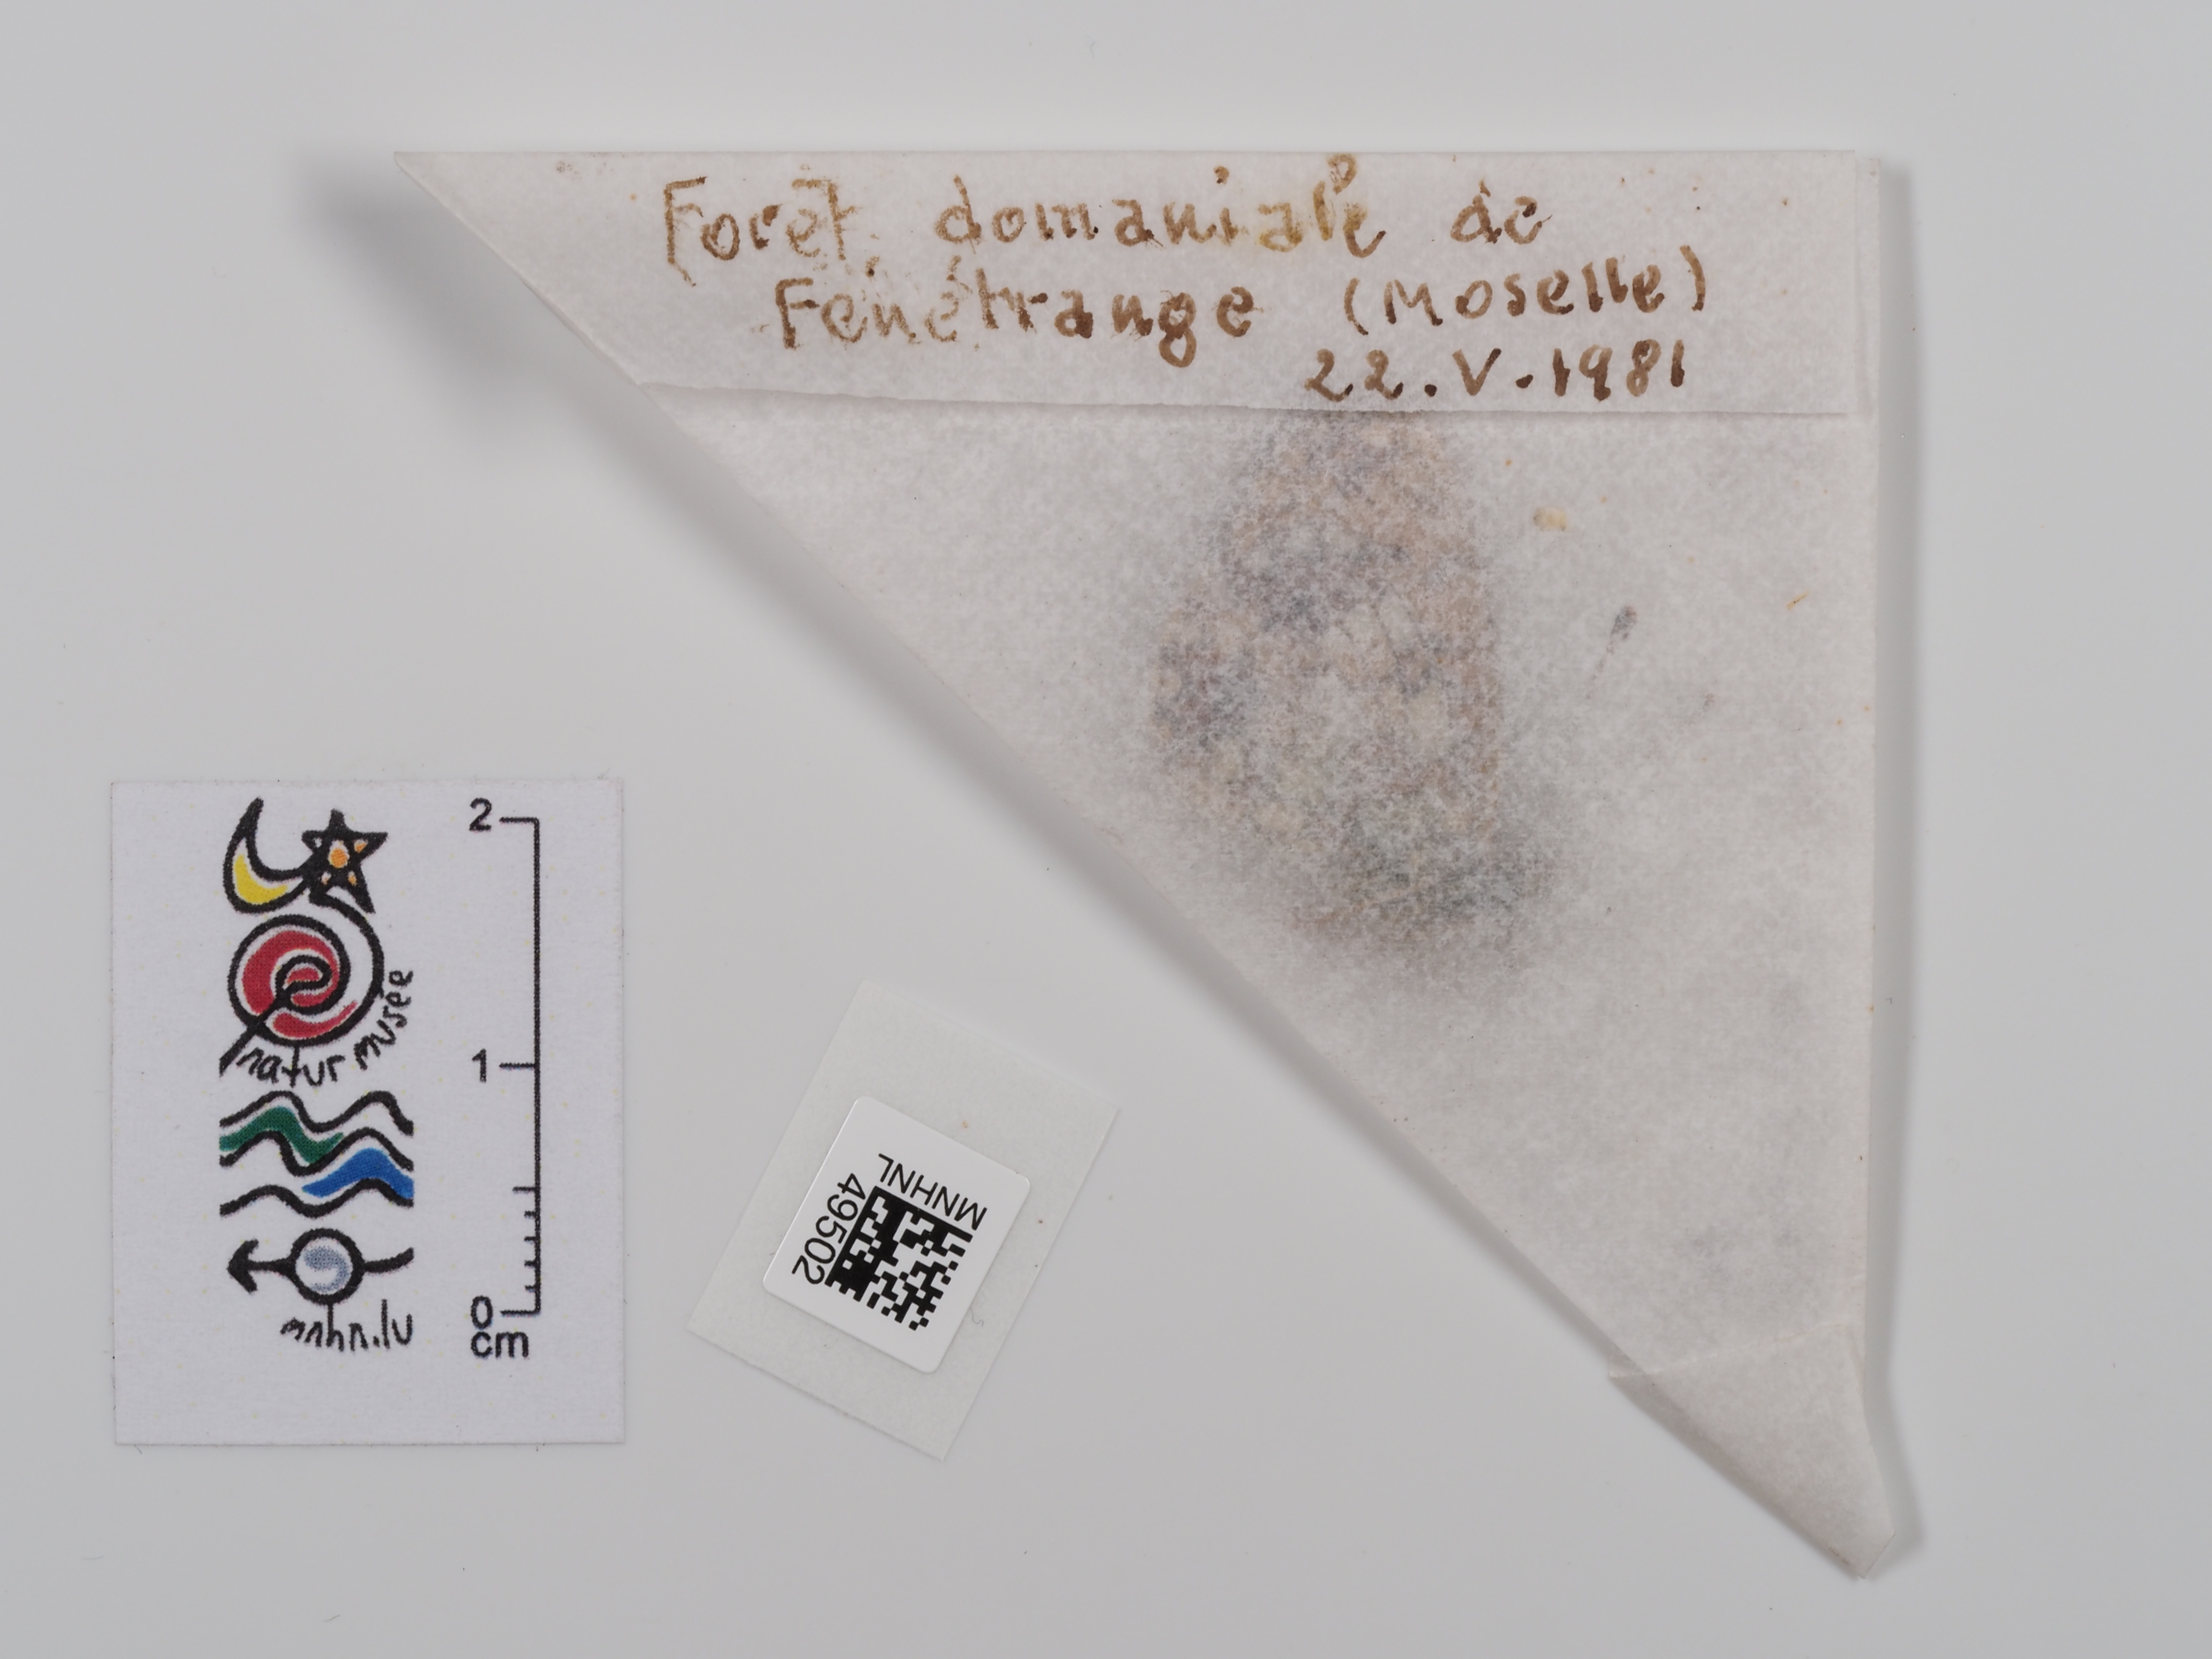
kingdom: Animalia
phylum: Arthropoda
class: Insecta
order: Lepidoptera
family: Nymphalidae
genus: Boloria
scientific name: Boloria selene
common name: Small pearl-bordered fritillary
